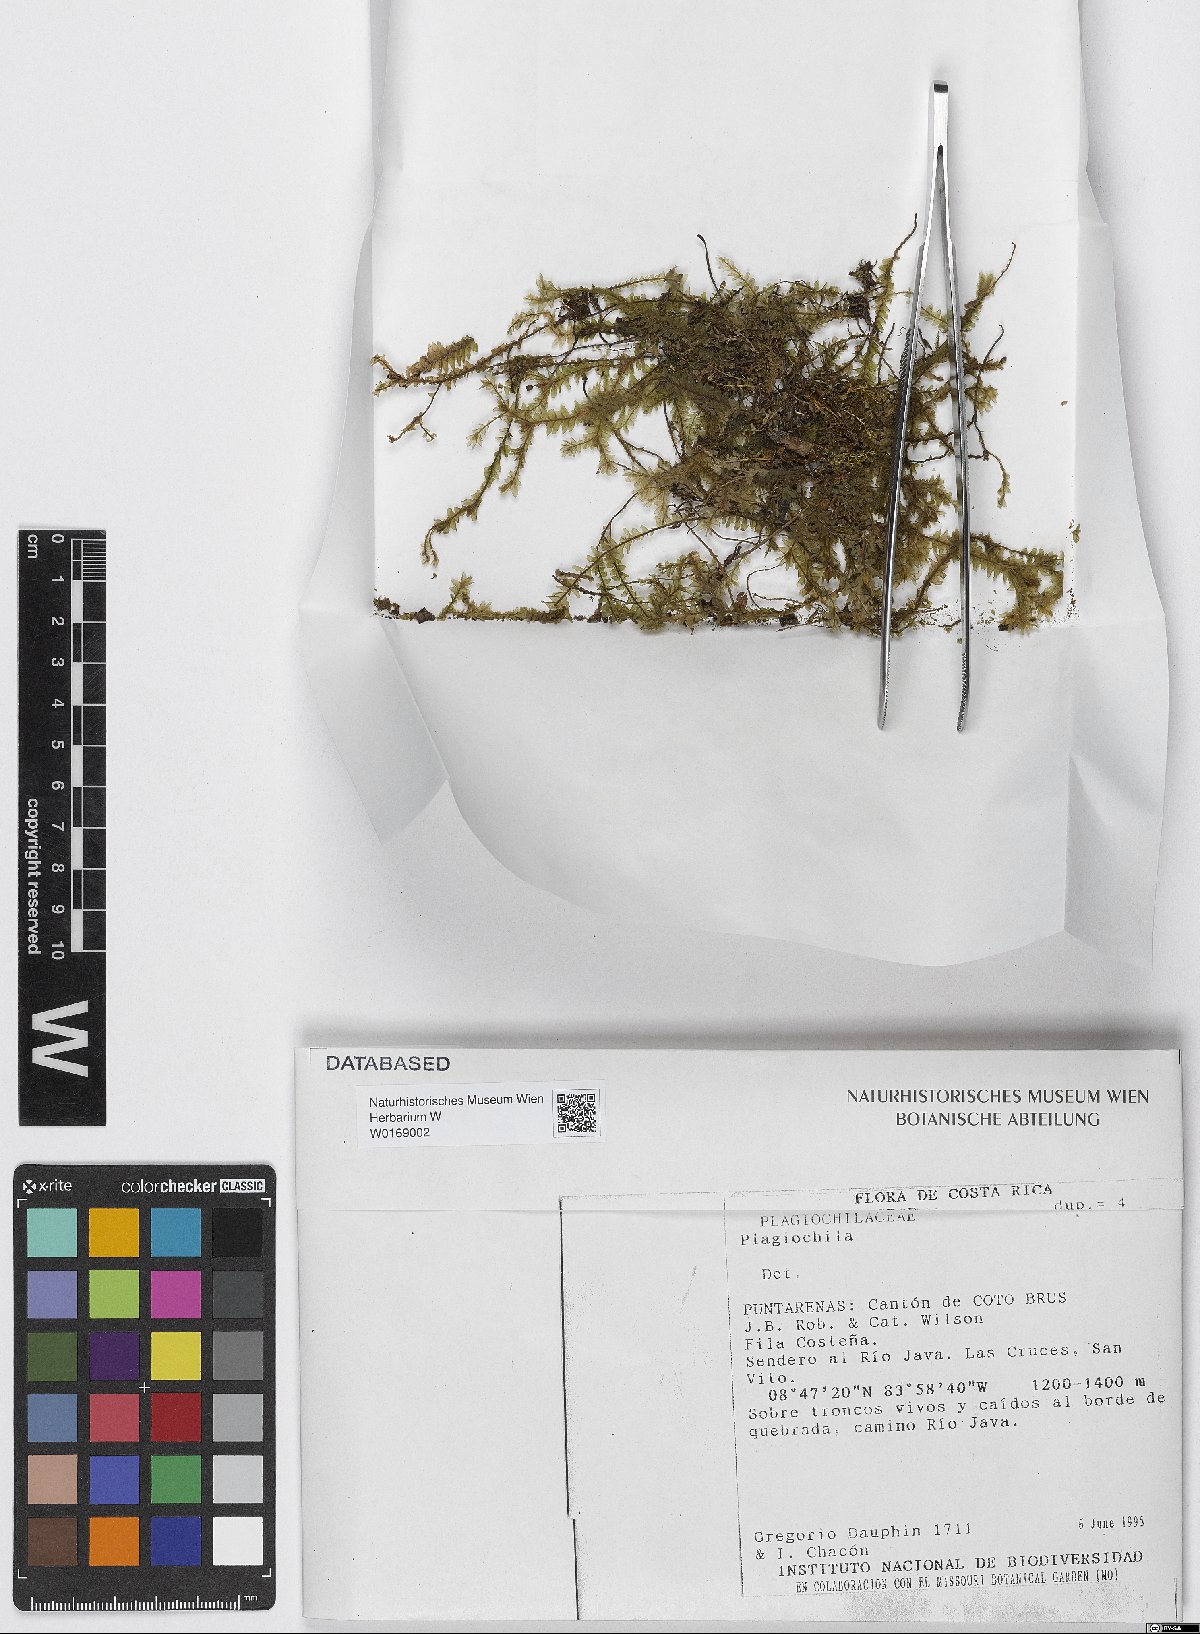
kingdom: Plantae
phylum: Marchantiophyta
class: Jungermanniopsida
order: Jungermanniales
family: Plagiochilaceae
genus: Plagiochila
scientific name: Plagiochila
